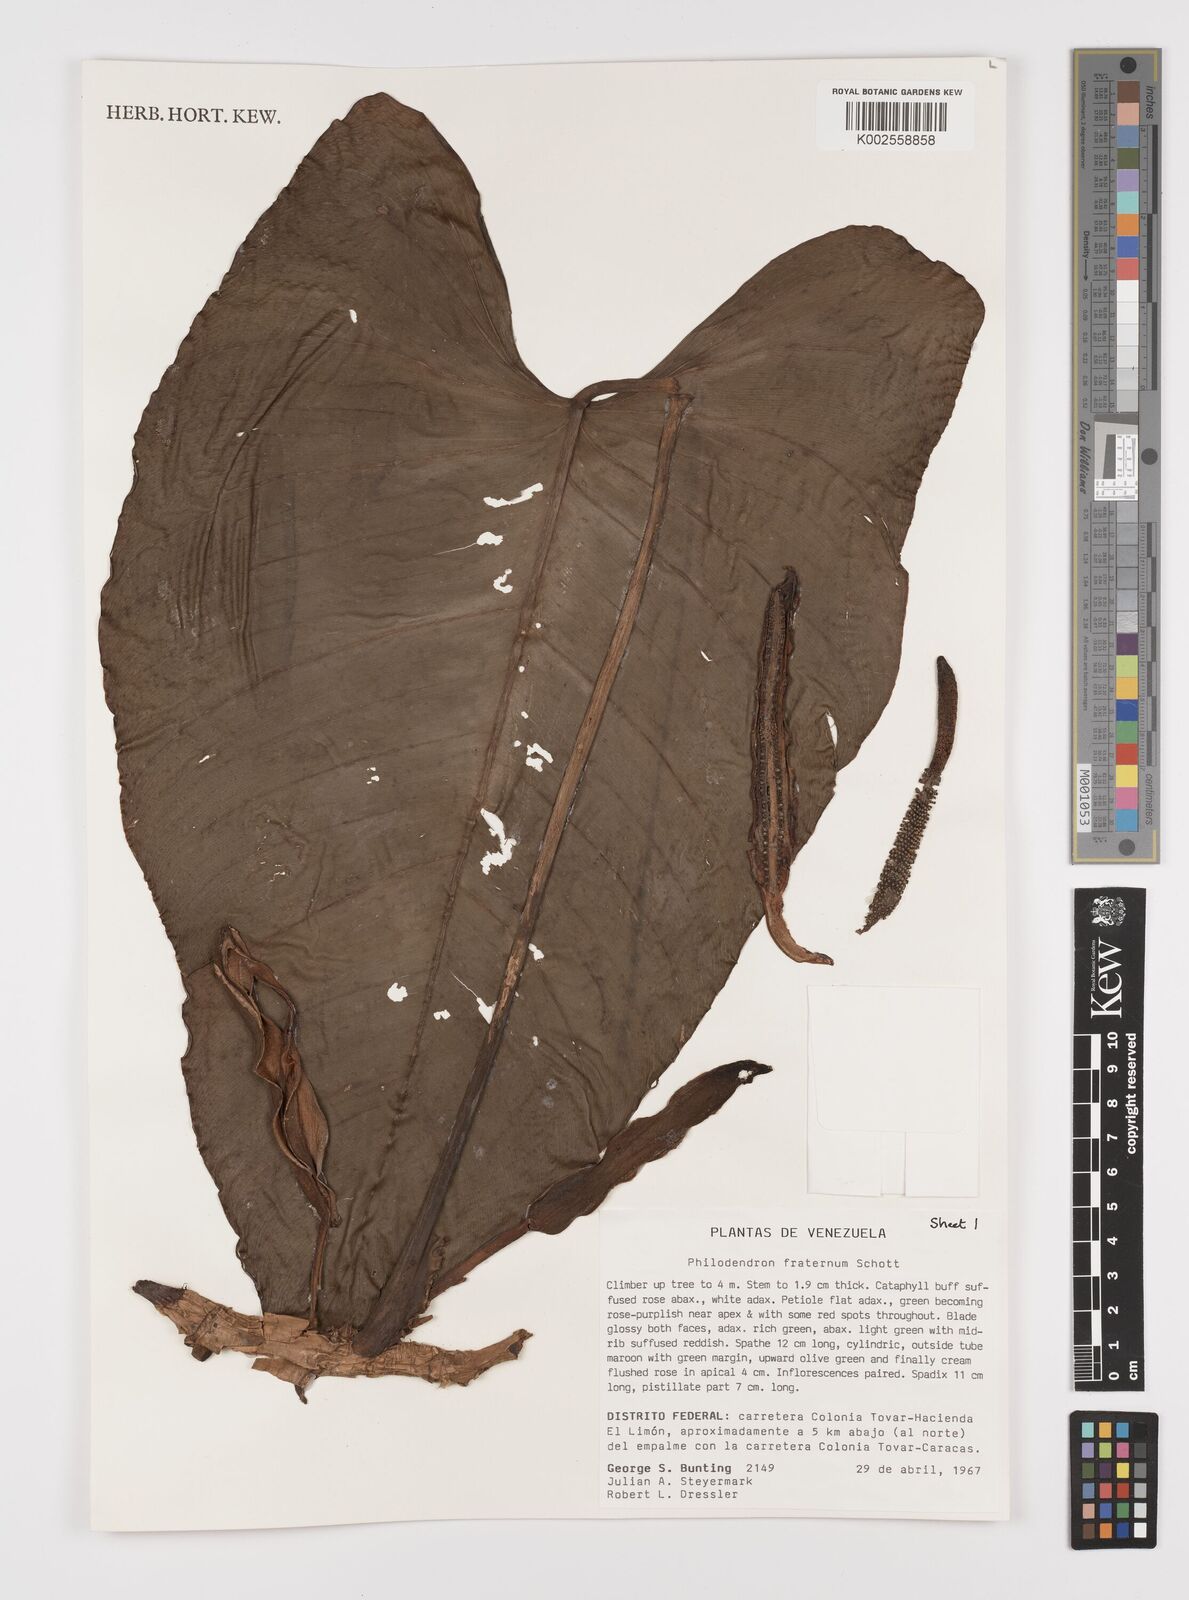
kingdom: Plantae
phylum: Tracheophyta
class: Liliopsida
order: Alismatales
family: Araceae
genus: Philodendron
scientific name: Philodendron fraternum
